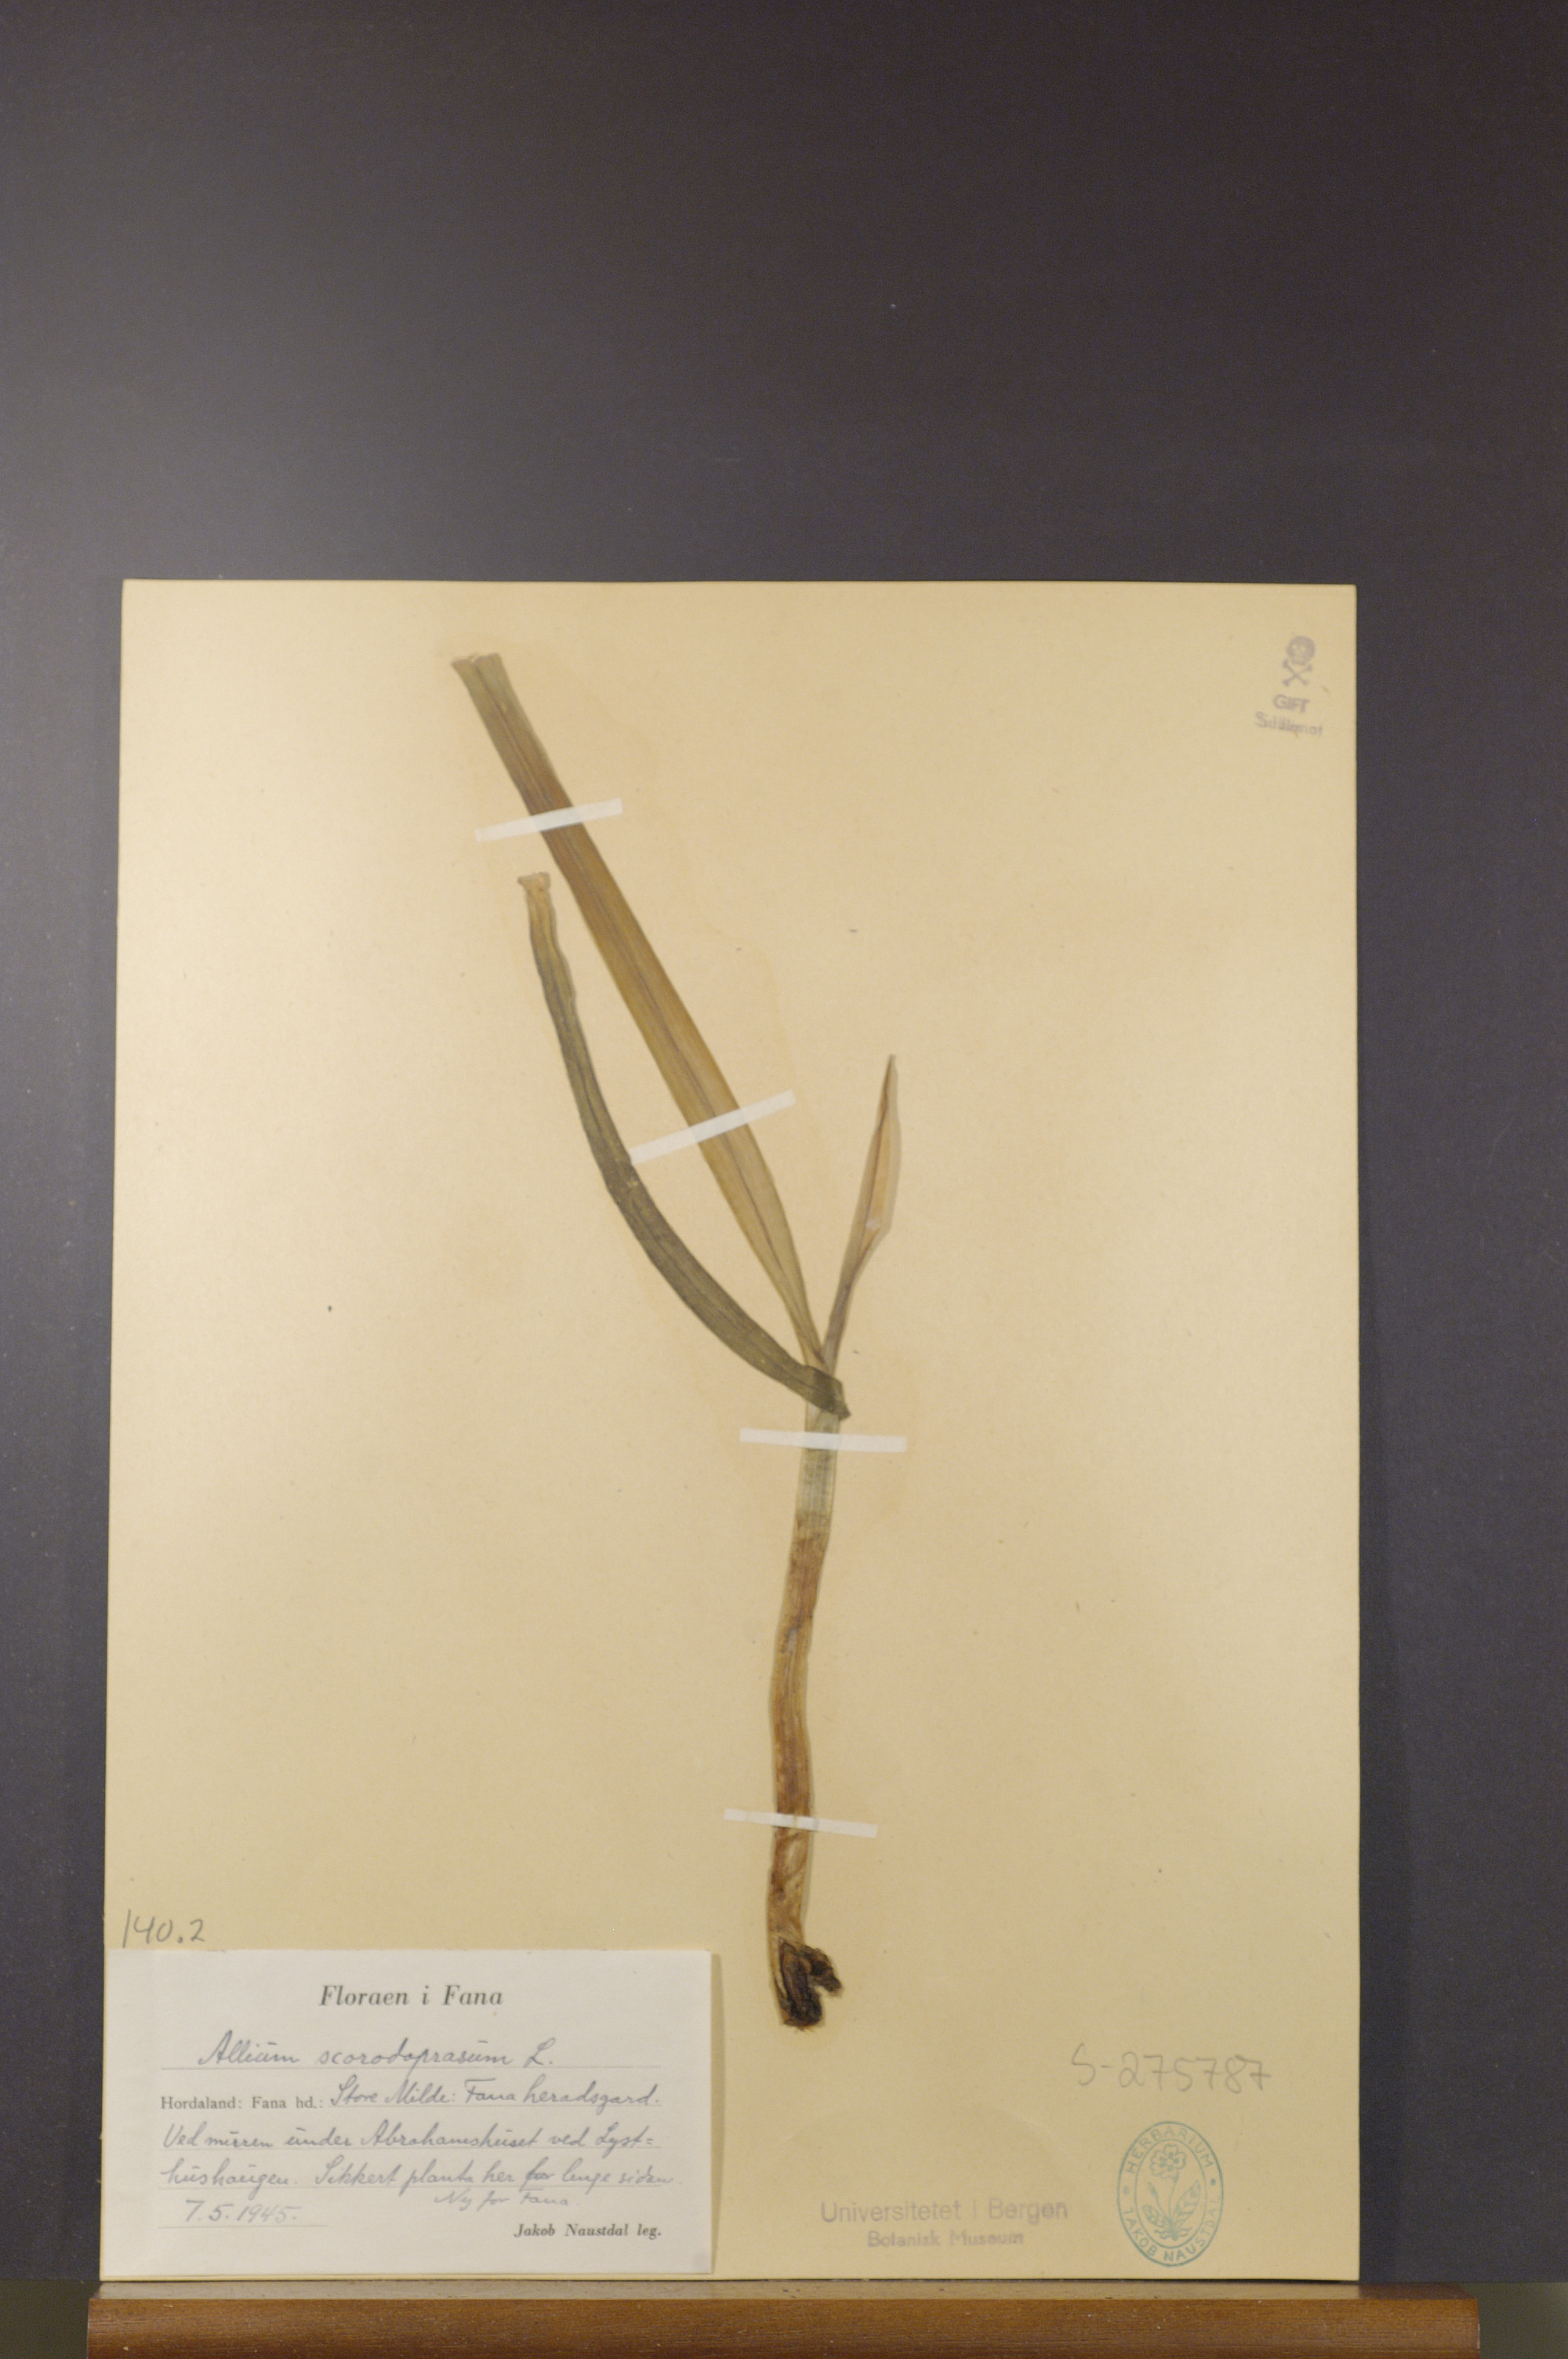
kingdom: Plantae
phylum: Tracheophyta
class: Liliopsida
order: Asparagales
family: Amaryllidaceae
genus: Allium
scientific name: Allium scorodoprasum
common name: Sand leek
